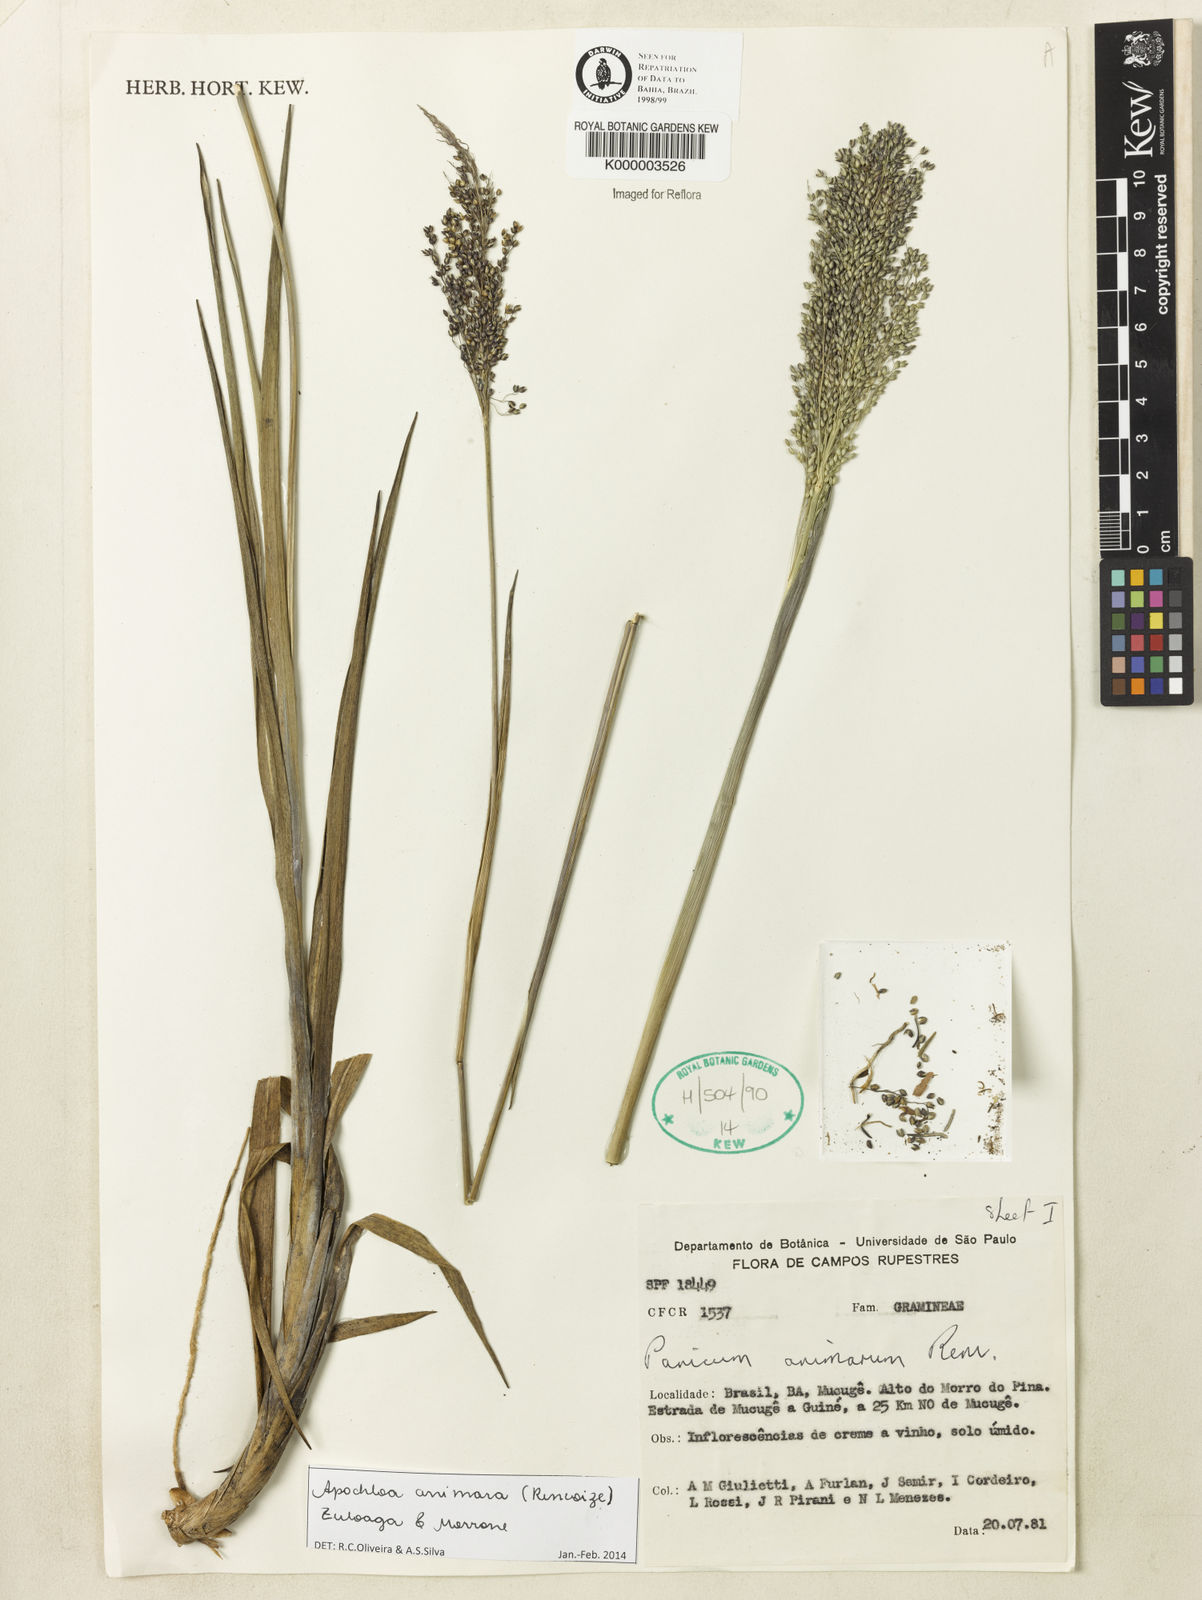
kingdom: Plantae
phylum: Tracheophyta
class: Liliopsida
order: Poales
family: Poaceae
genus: Apochloa
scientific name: Apochloa animara
